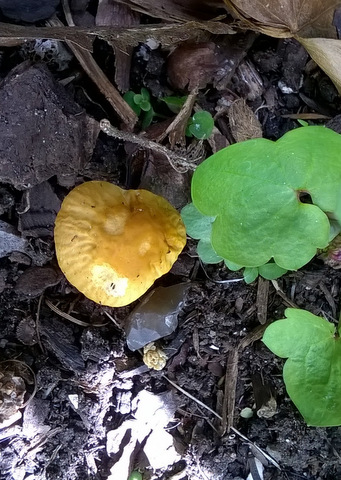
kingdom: Fungi
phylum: Basidiomycota
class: Agaricomycetes
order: Agaricales
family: Bolbitiaceae
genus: Conocybe
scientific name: Conocybe aurea
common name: gylden keglehat
